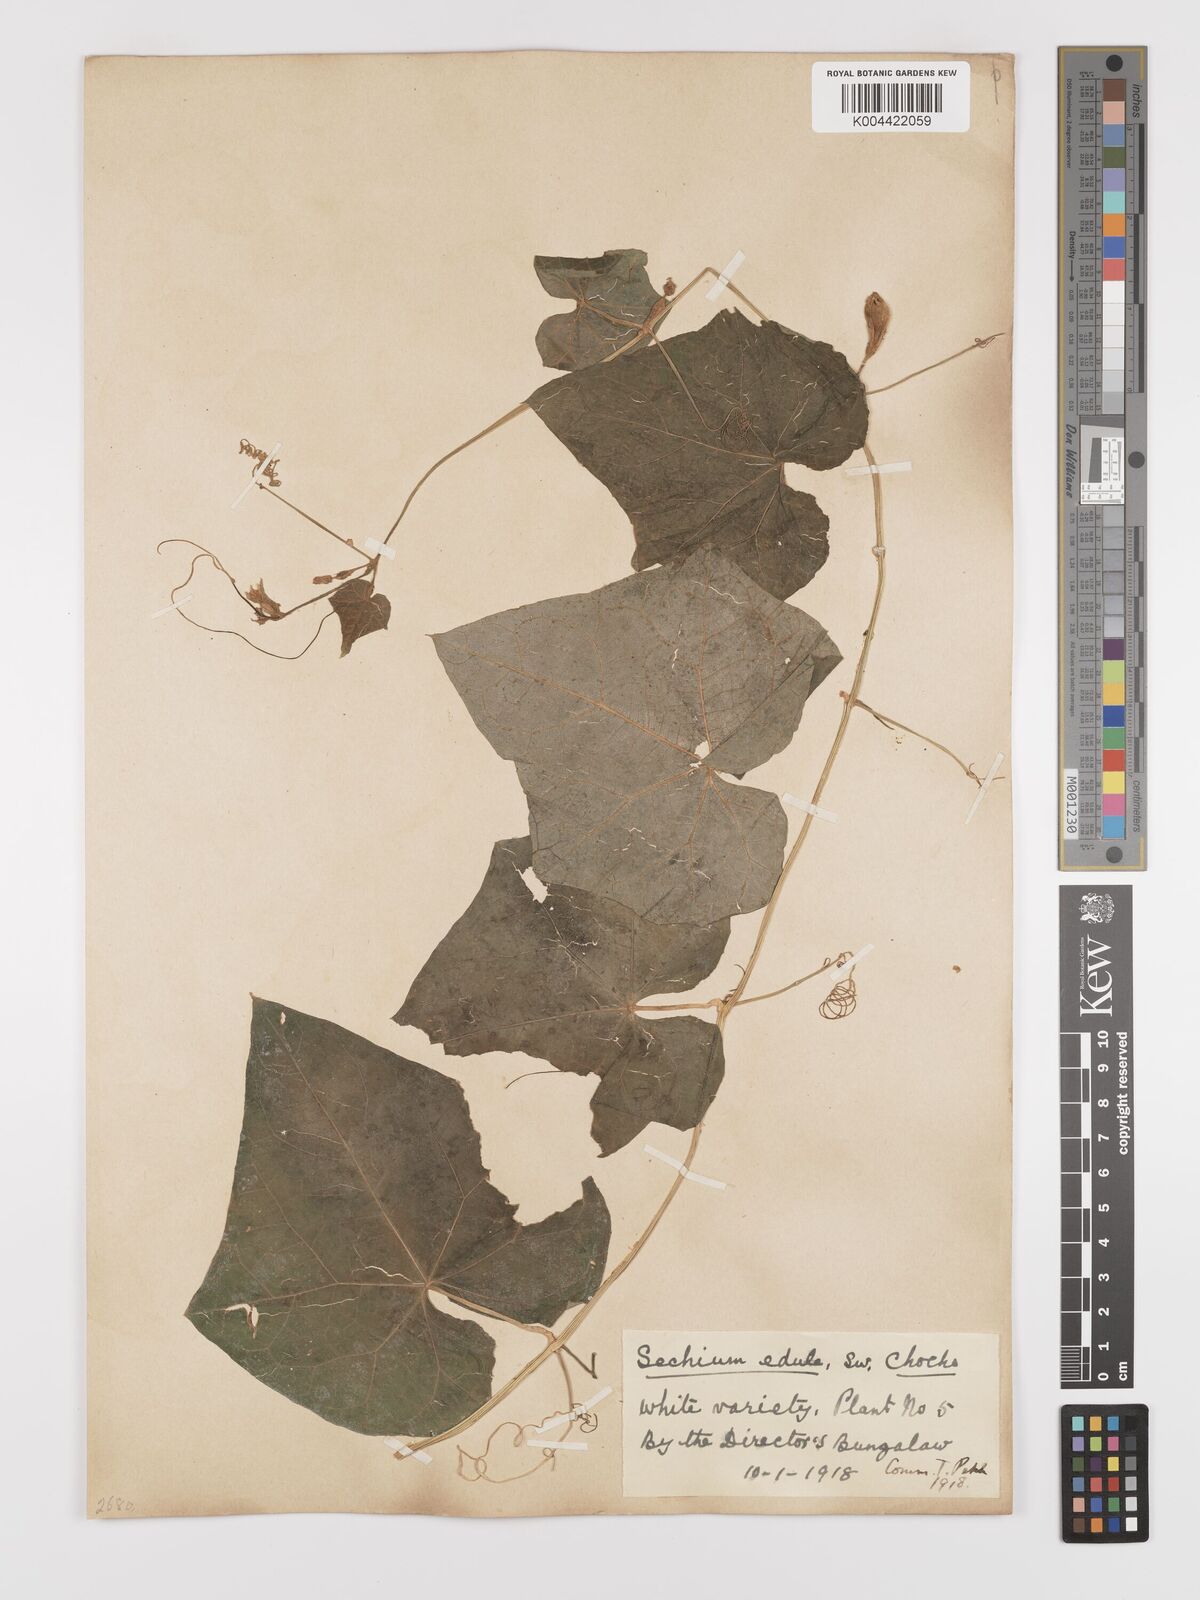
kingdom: Plantae
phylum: Tracheophyta
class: Magnoliopsida
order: Cucurbitales
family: Cucurbitaceae
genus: Sechium
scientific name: Sechium edule
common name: Chayote
